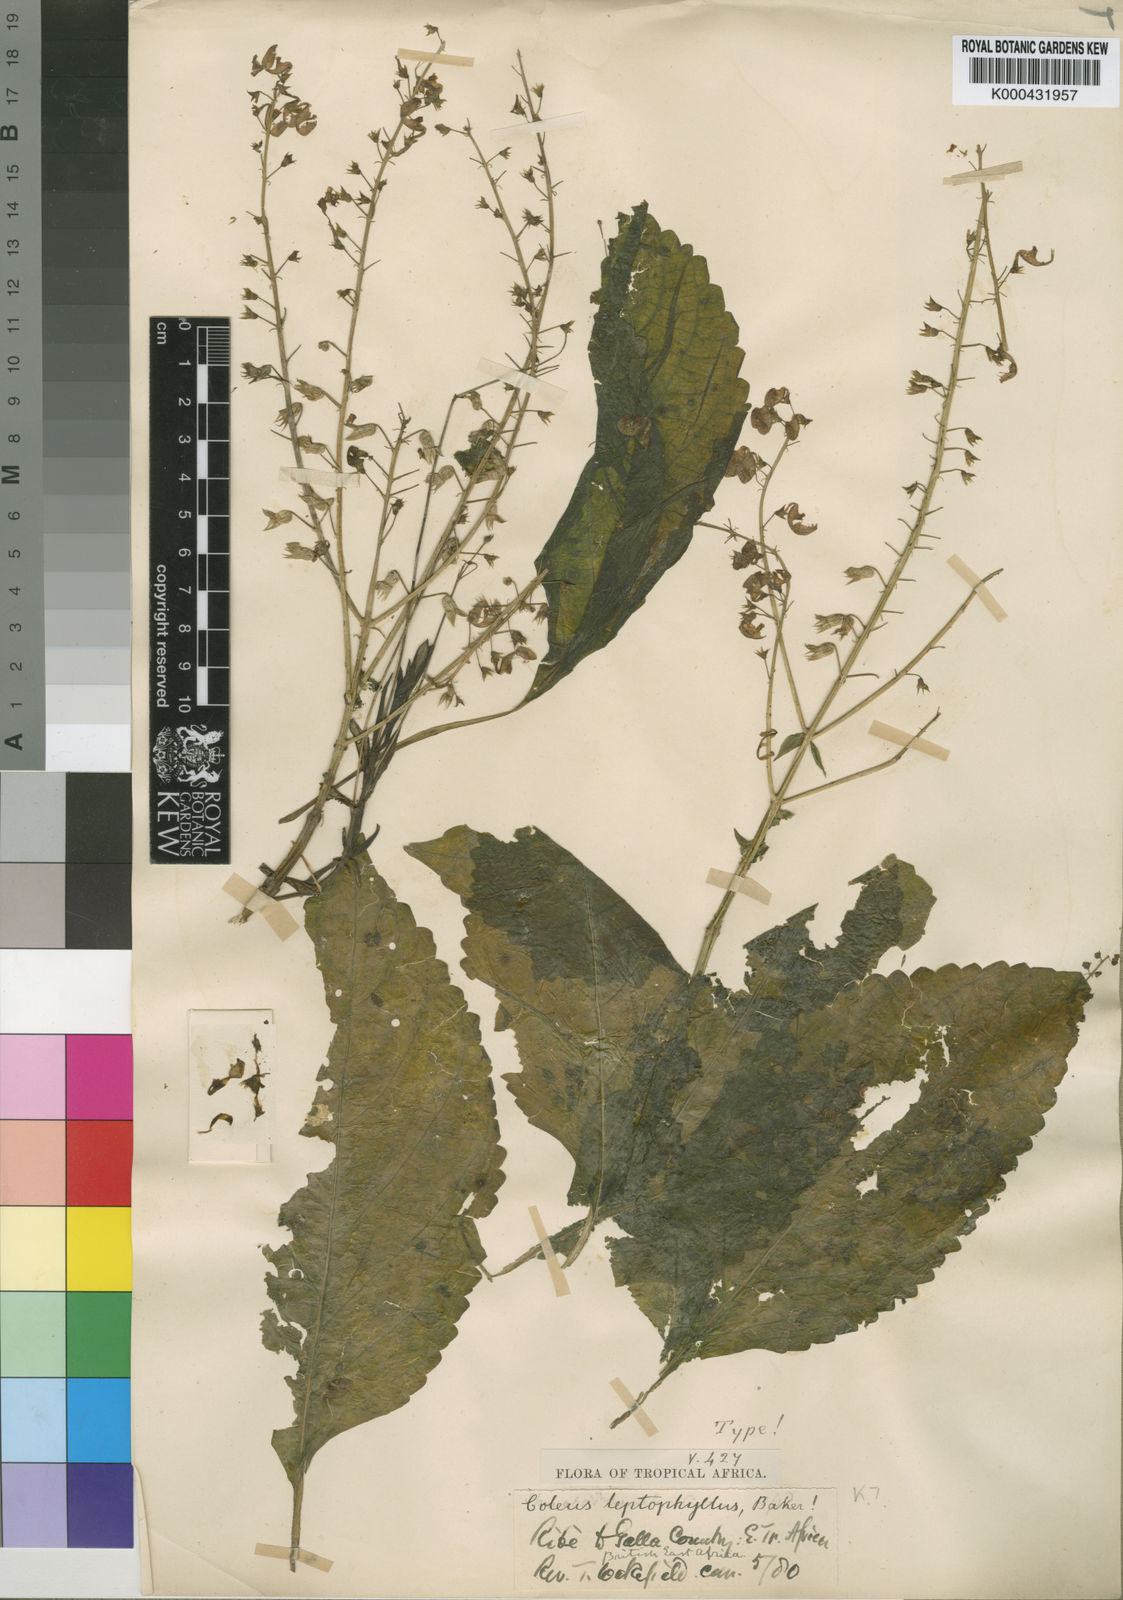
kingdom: Plantae
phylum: Tracheophyta
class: Magnoliopsida
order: Lamiales
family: Lamiaceae
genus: Plectranthus
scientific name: Plectranthus
